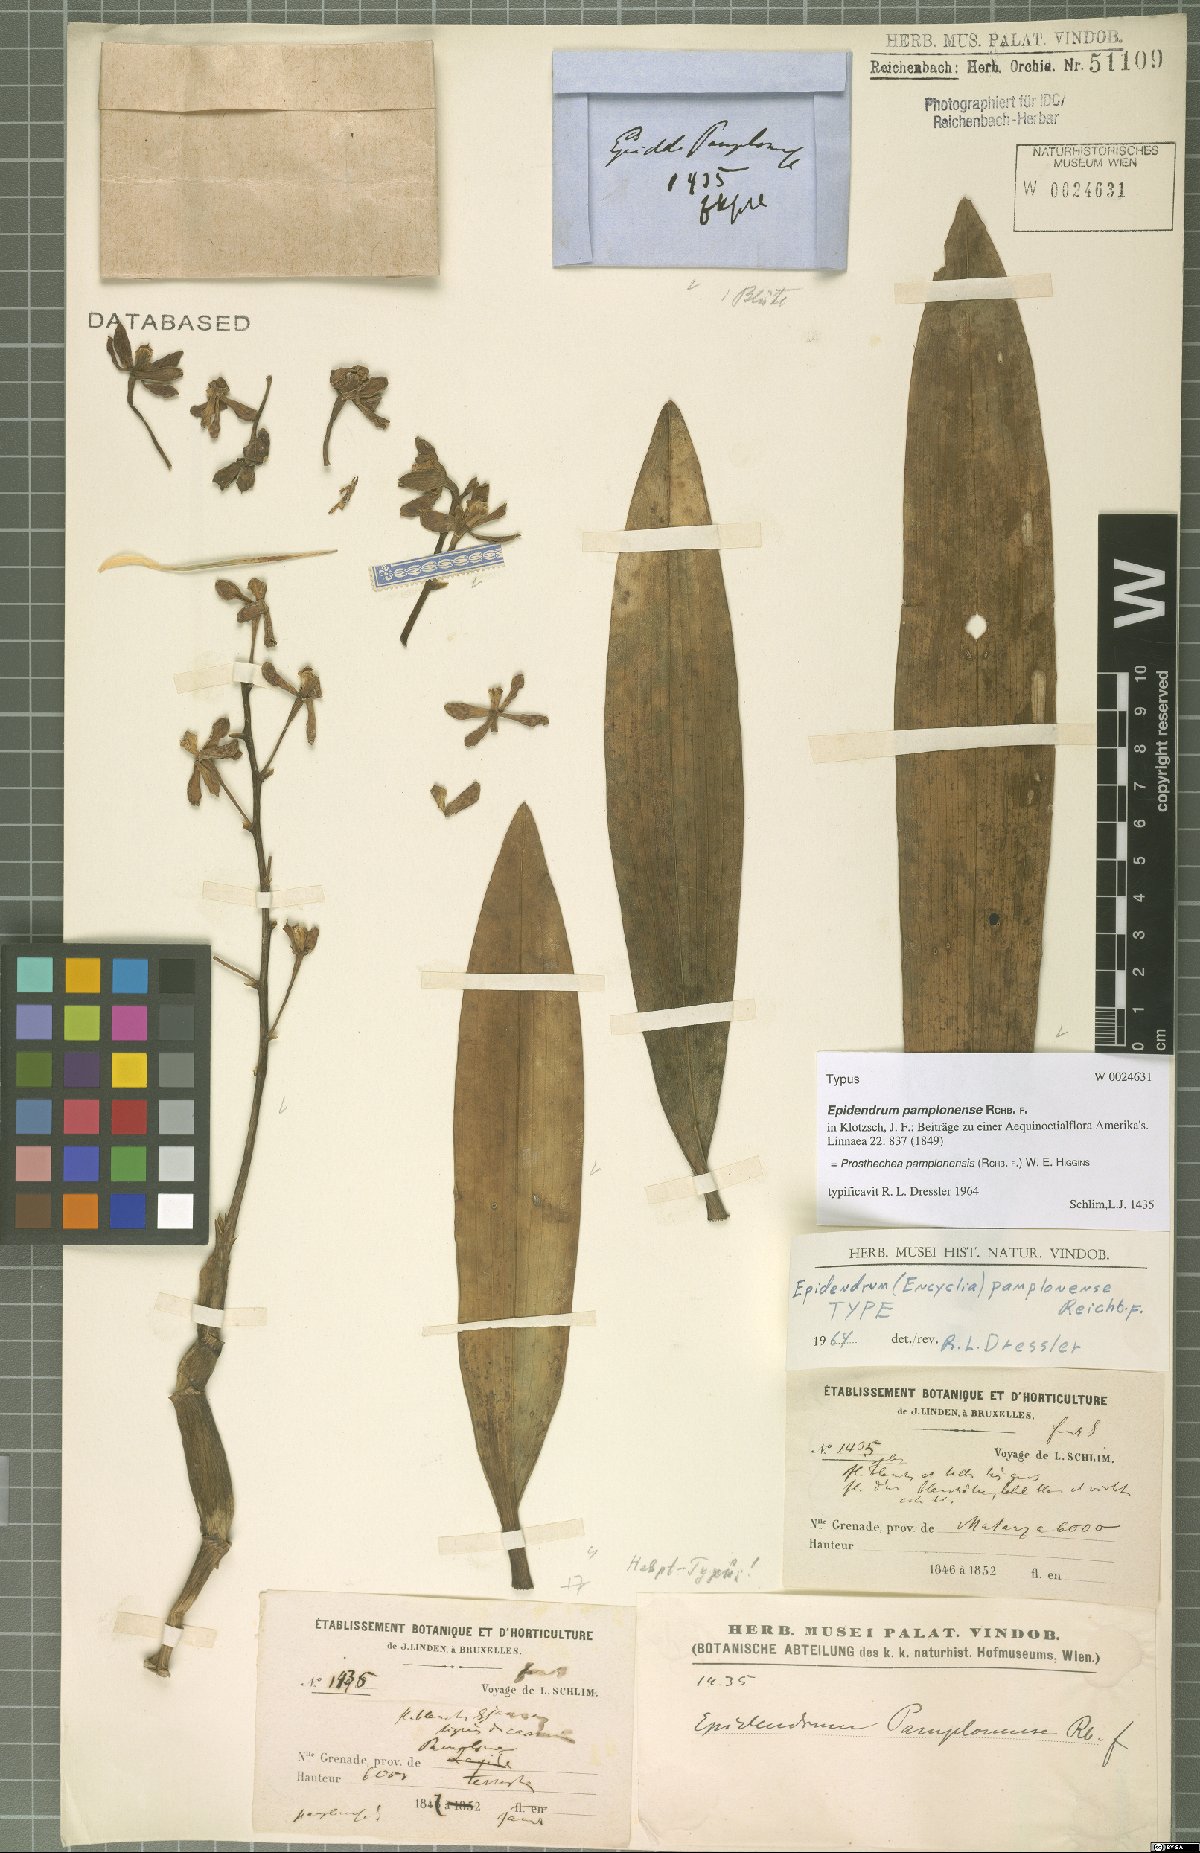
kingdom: Plantae
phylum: Tracheophyta
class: Liliopsida
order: Asparagales
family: Orchidaceae
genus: Prosthechea
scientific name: Prosthechea pamplonensis
